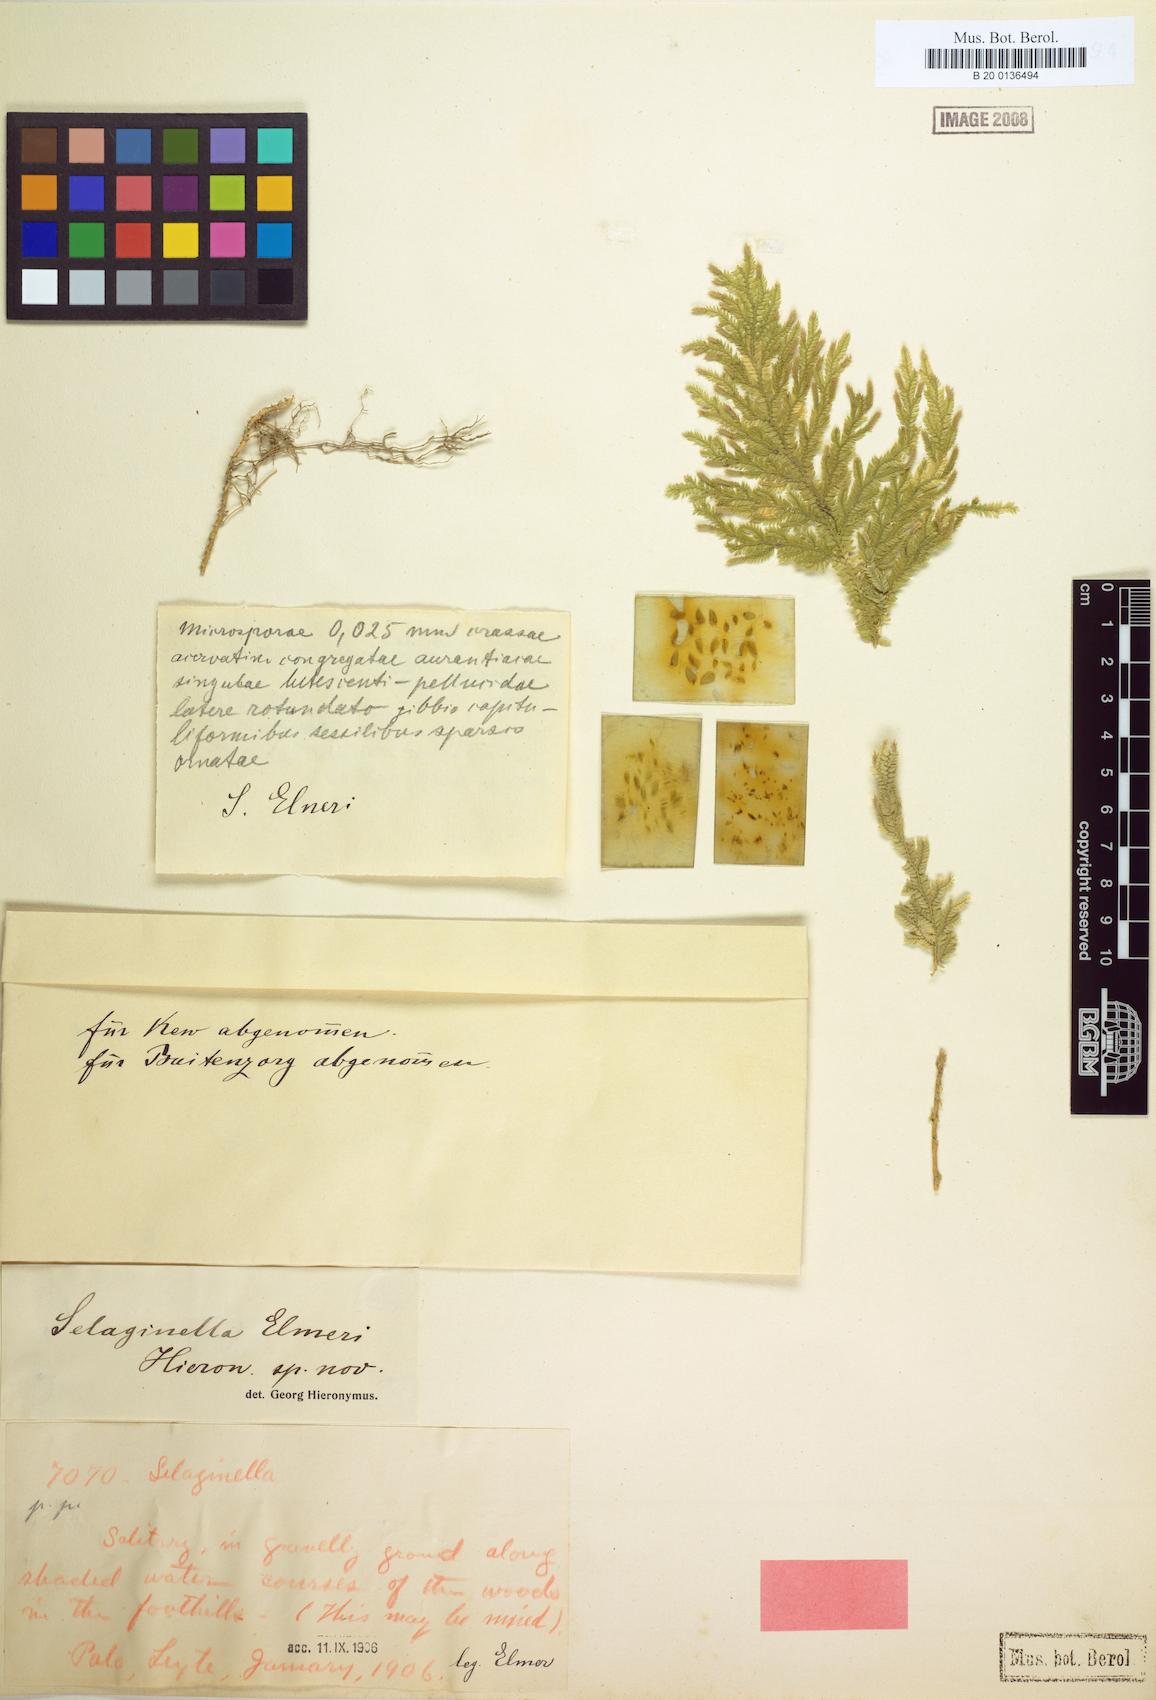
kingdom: Plantae
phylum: Tracheophyta
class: Lycopodiopsida
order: Selaginellales
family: Selaginellaceae
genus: Selaginella
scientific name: Selaginella elmeri
